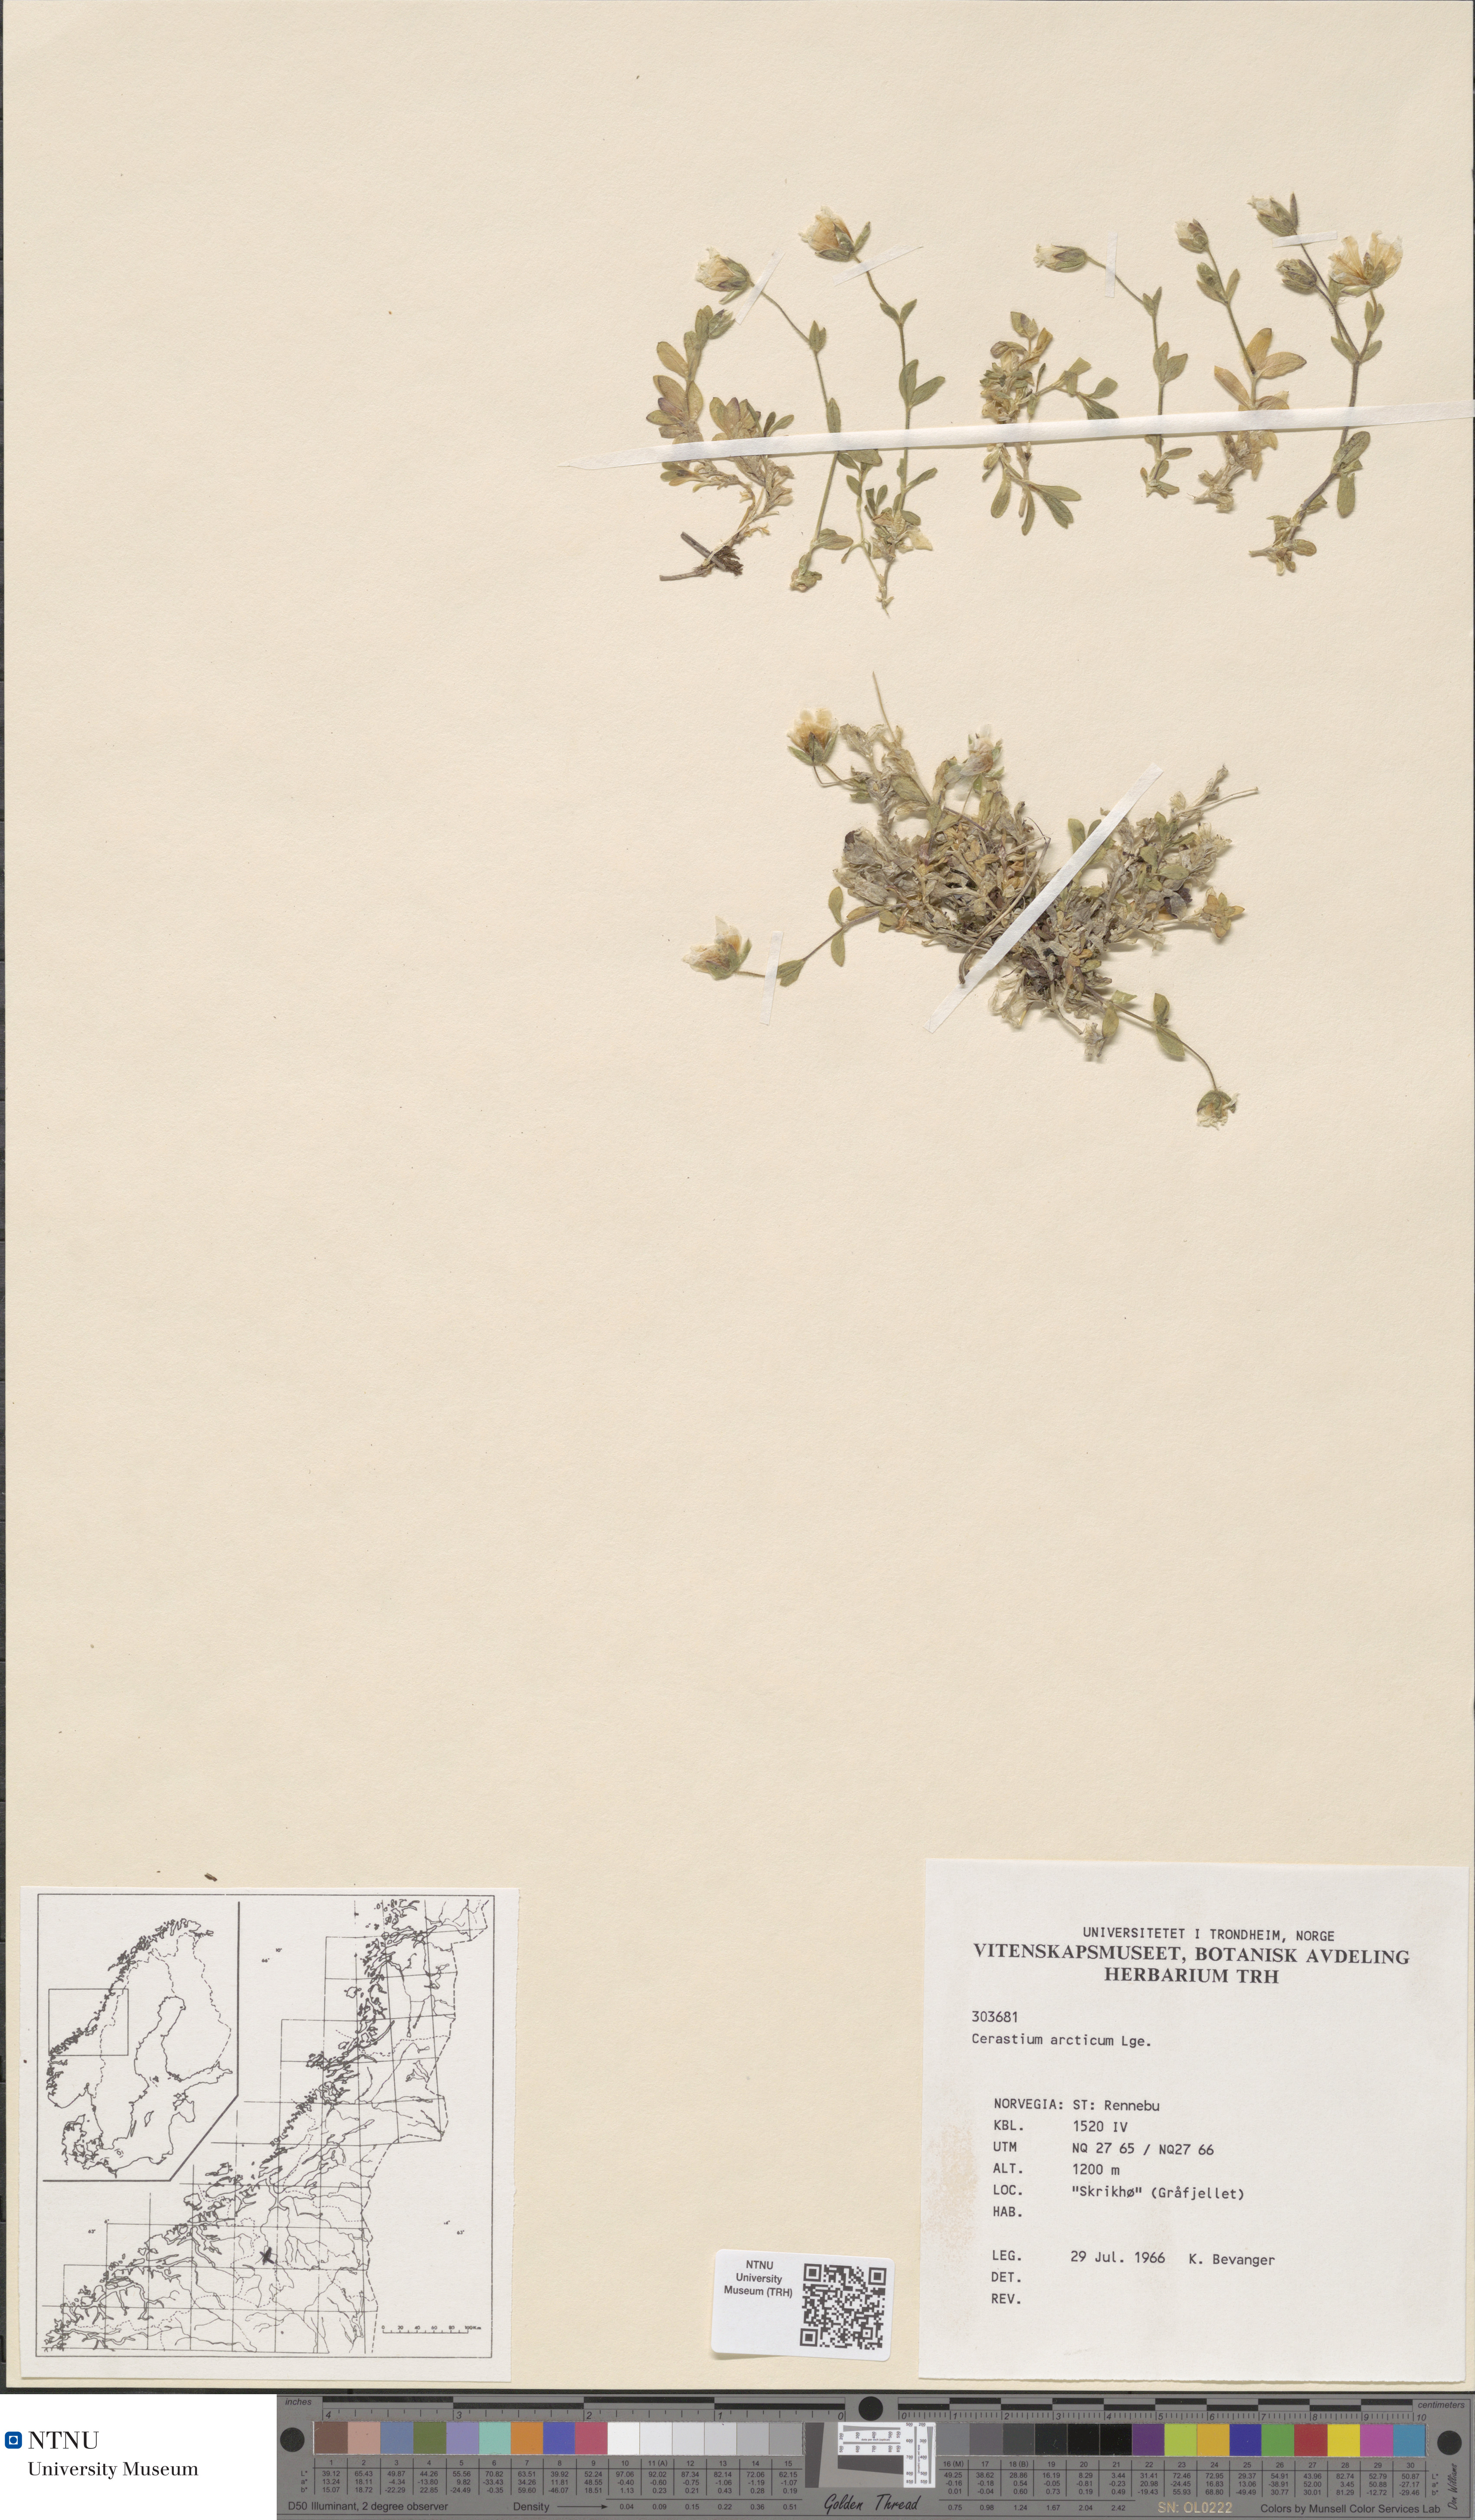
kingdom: Plantae
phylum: Tracheophyta
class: Magnoliopsida
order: Caryophyllales
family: Caryophyllaceae
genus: Cerastium
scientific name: Cerastium nigrescens
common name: Shetland mouse-ear
